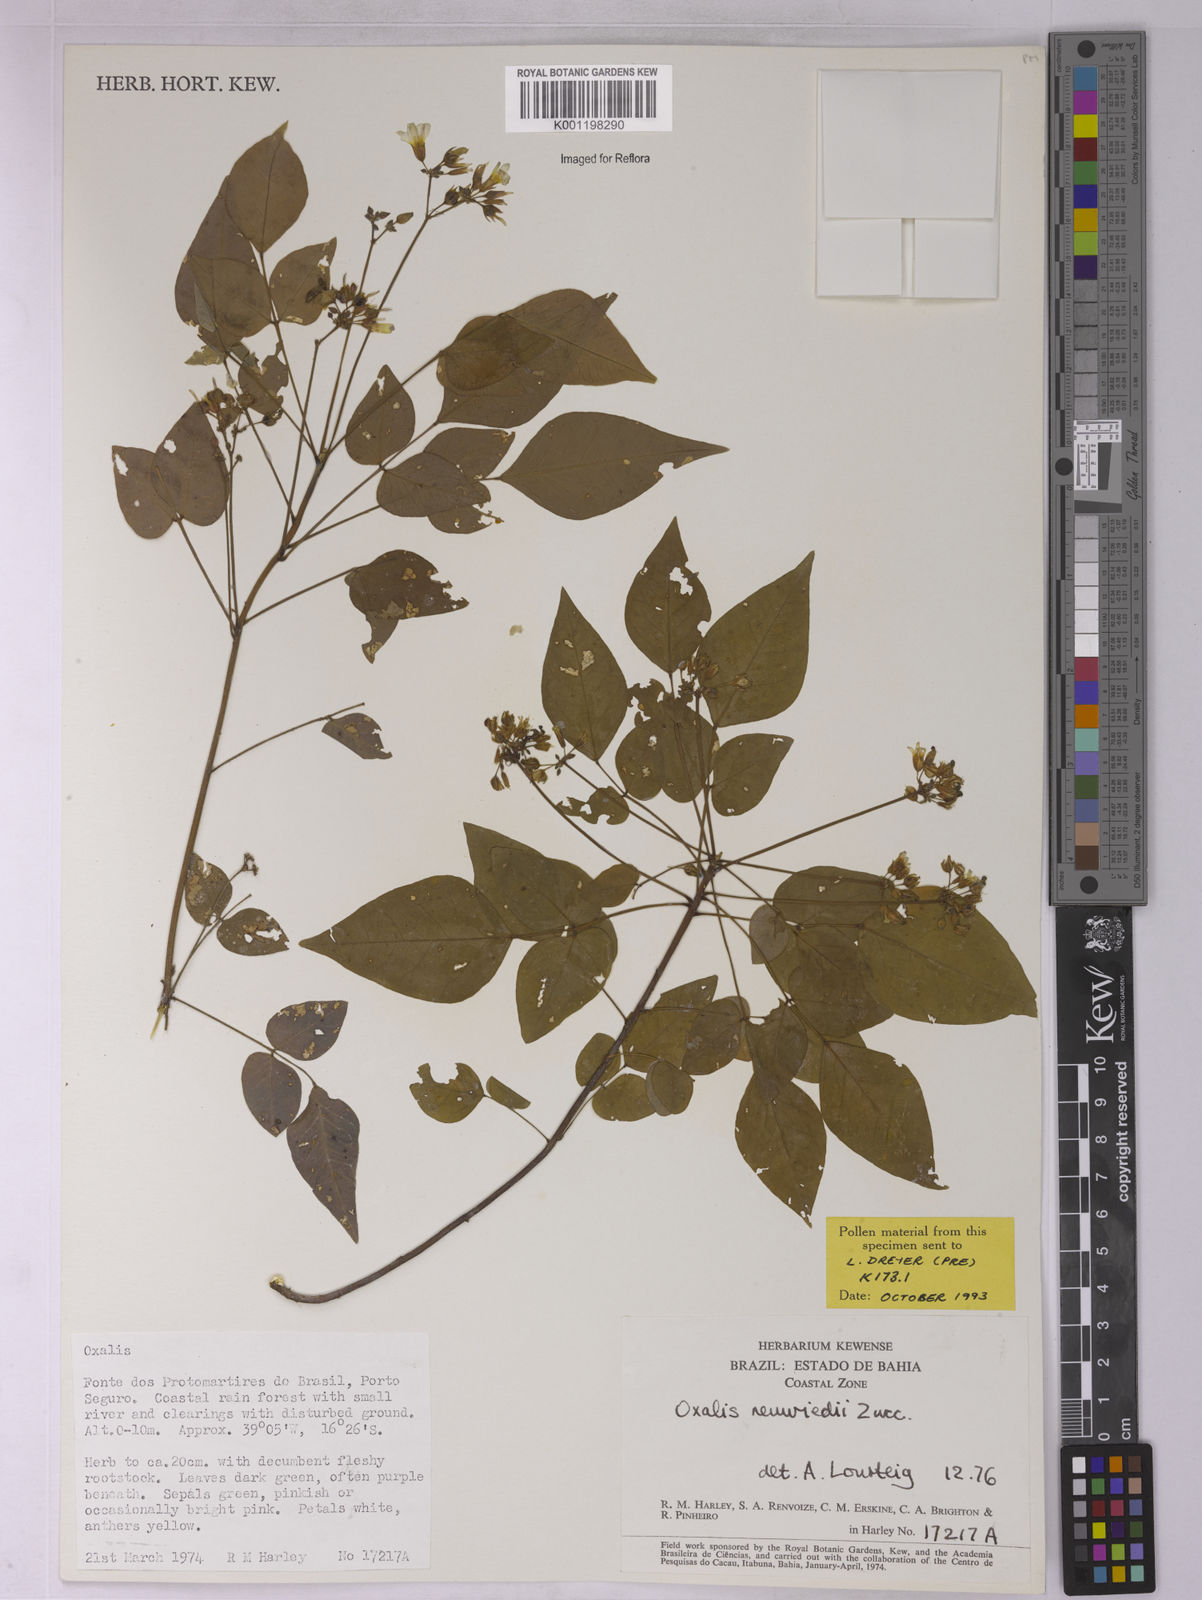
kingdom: Plantae
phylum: Tracheophyta
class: Magnoliopsida
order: Oxalidales
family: Oxalidaceae
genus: Oxalis
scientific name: Oxalis neuwiedii
